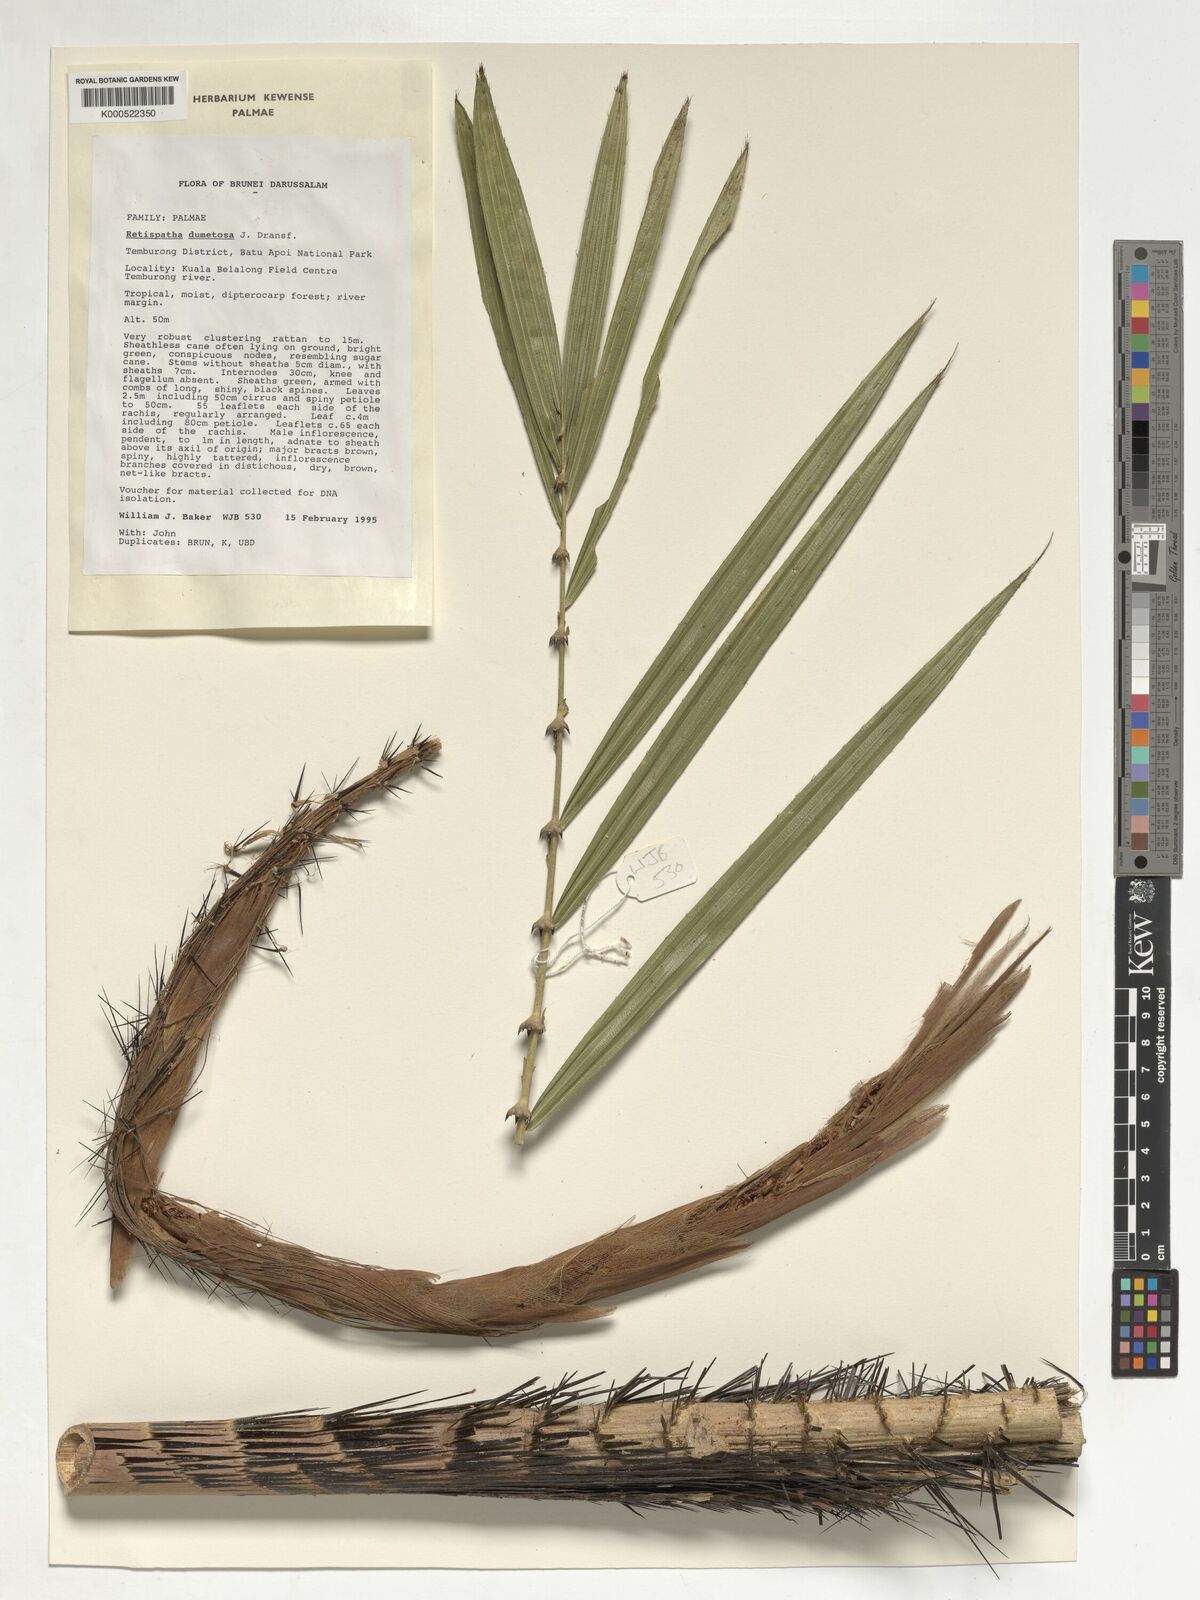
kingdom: Plantae
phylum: Tracheophyta
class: Liliopsida
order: Arecales
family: Arecaceae
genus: Calamus
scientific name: Calamus dumetosus
